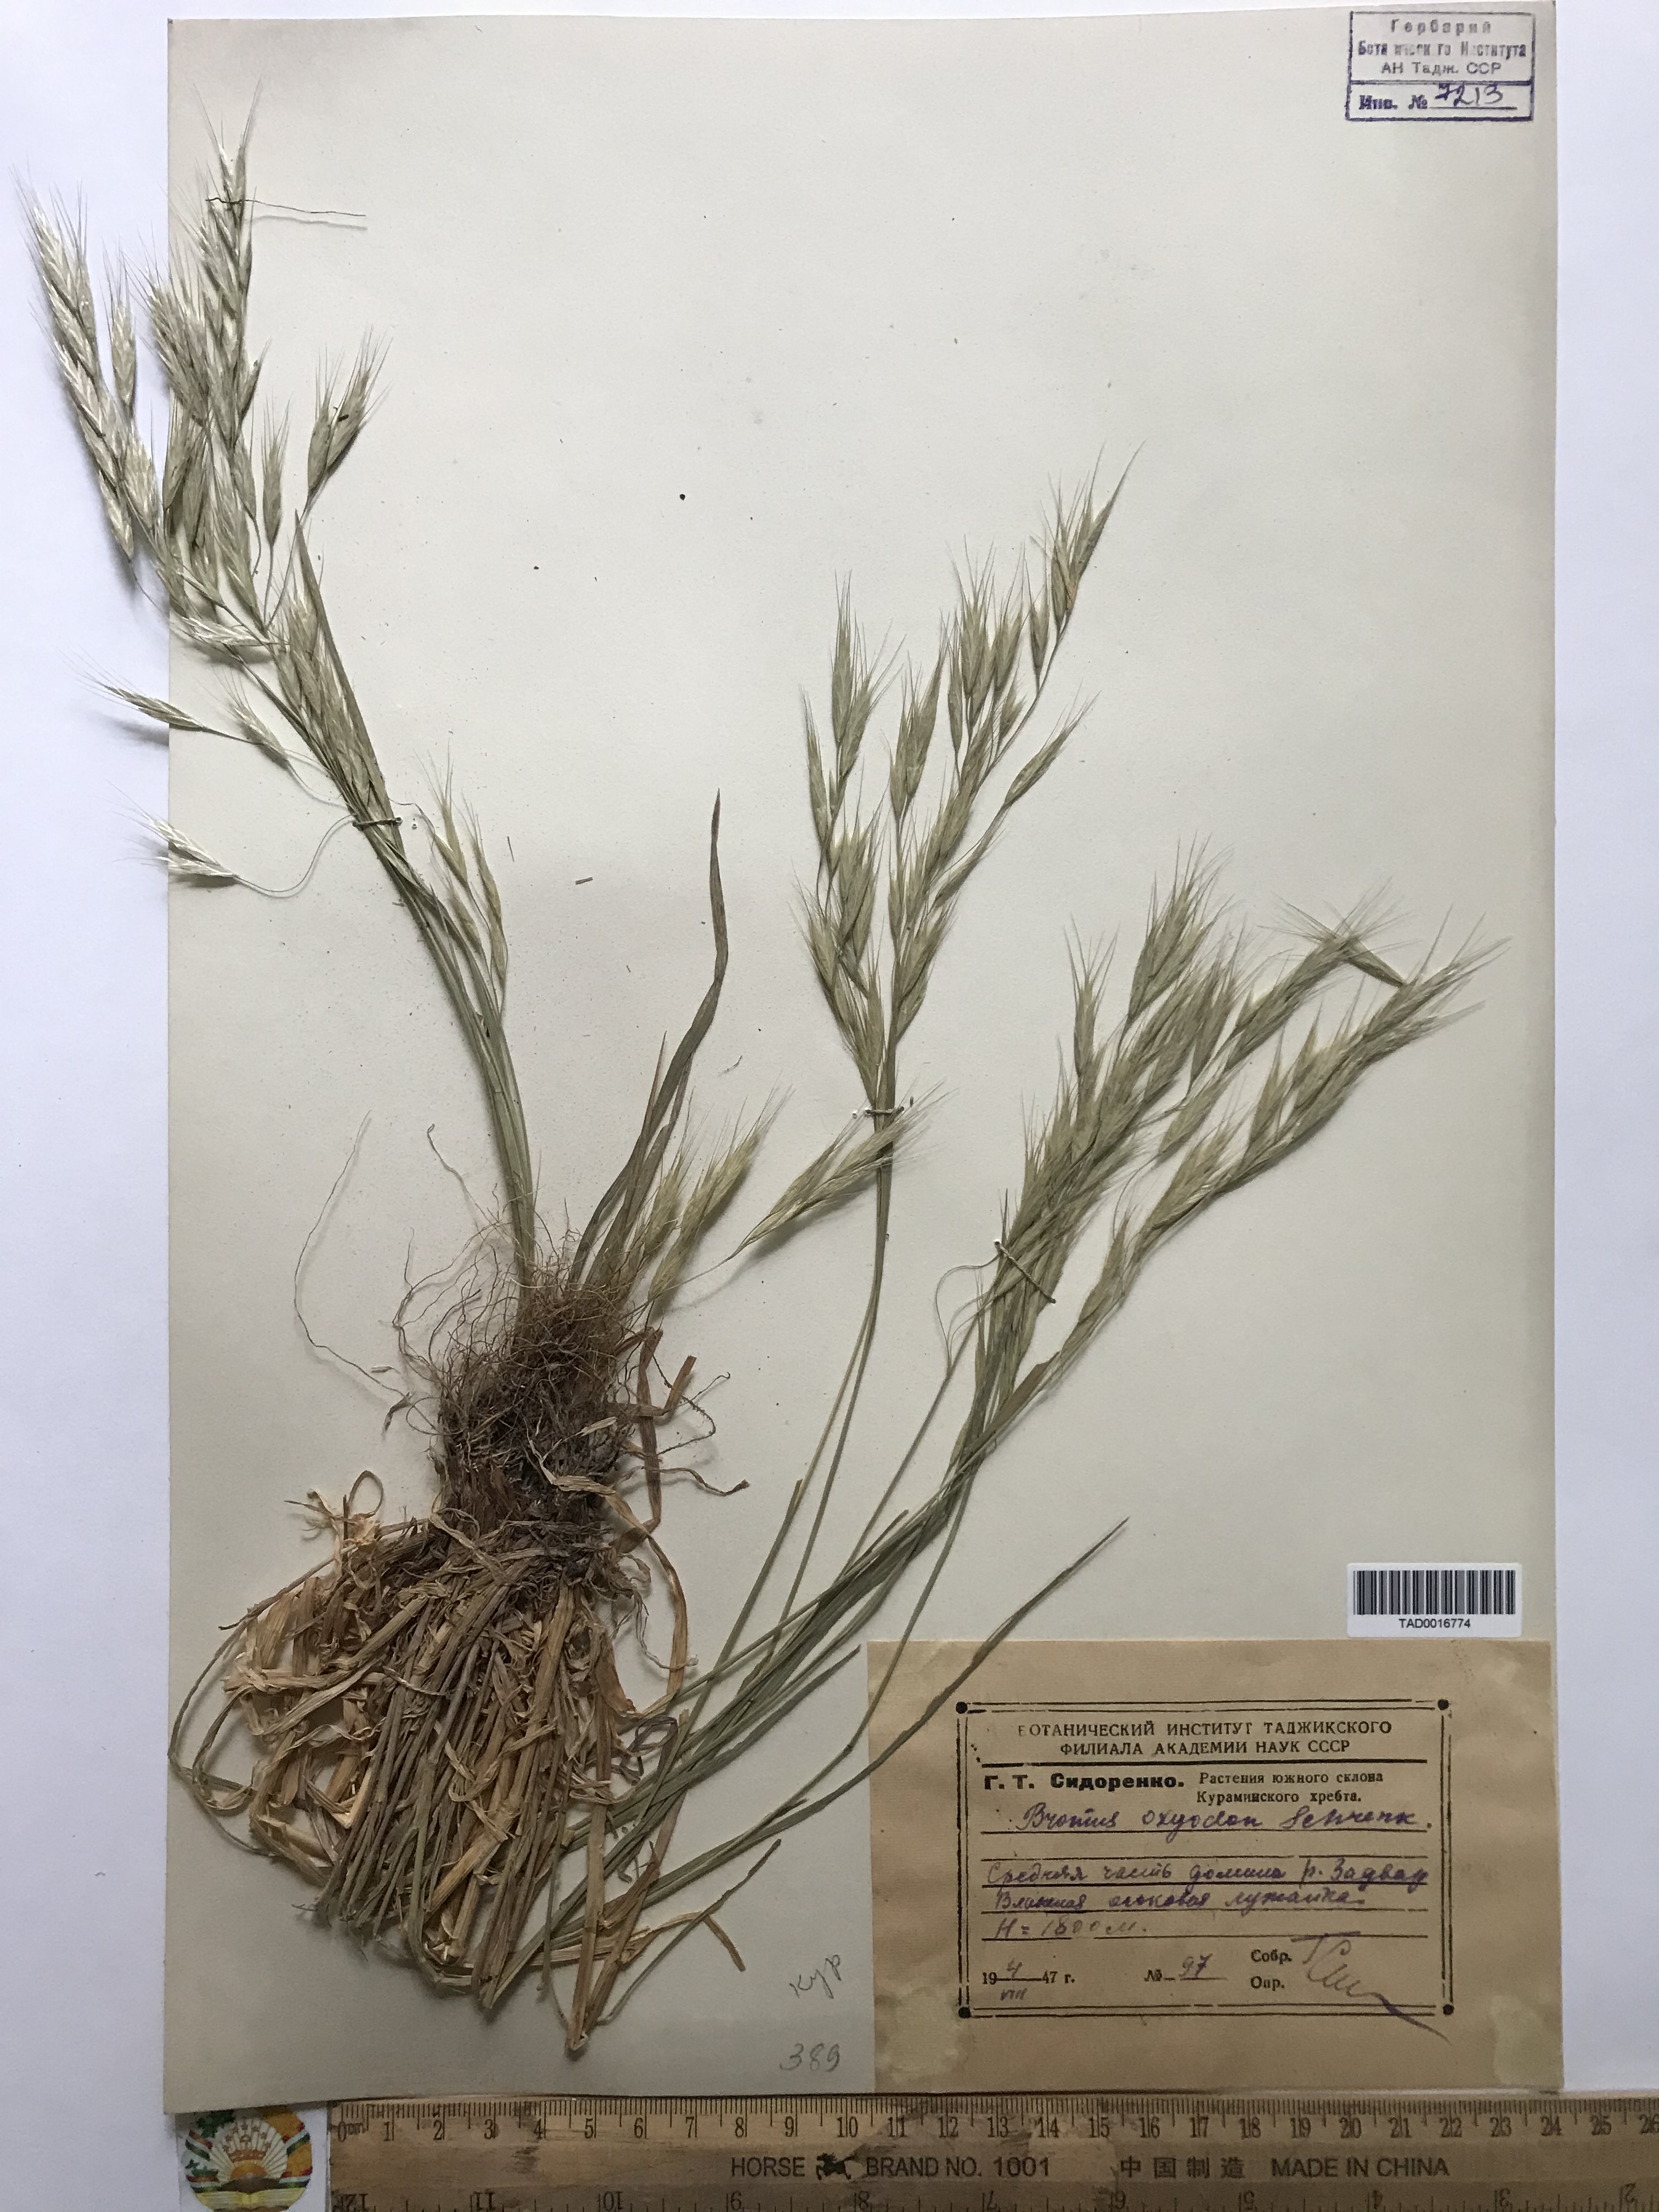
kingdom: Plantae
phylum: Tracheophyta
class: Liliopsida
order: Poales
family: Poaceae
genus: Bromus
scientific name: Bromus oxyodon
